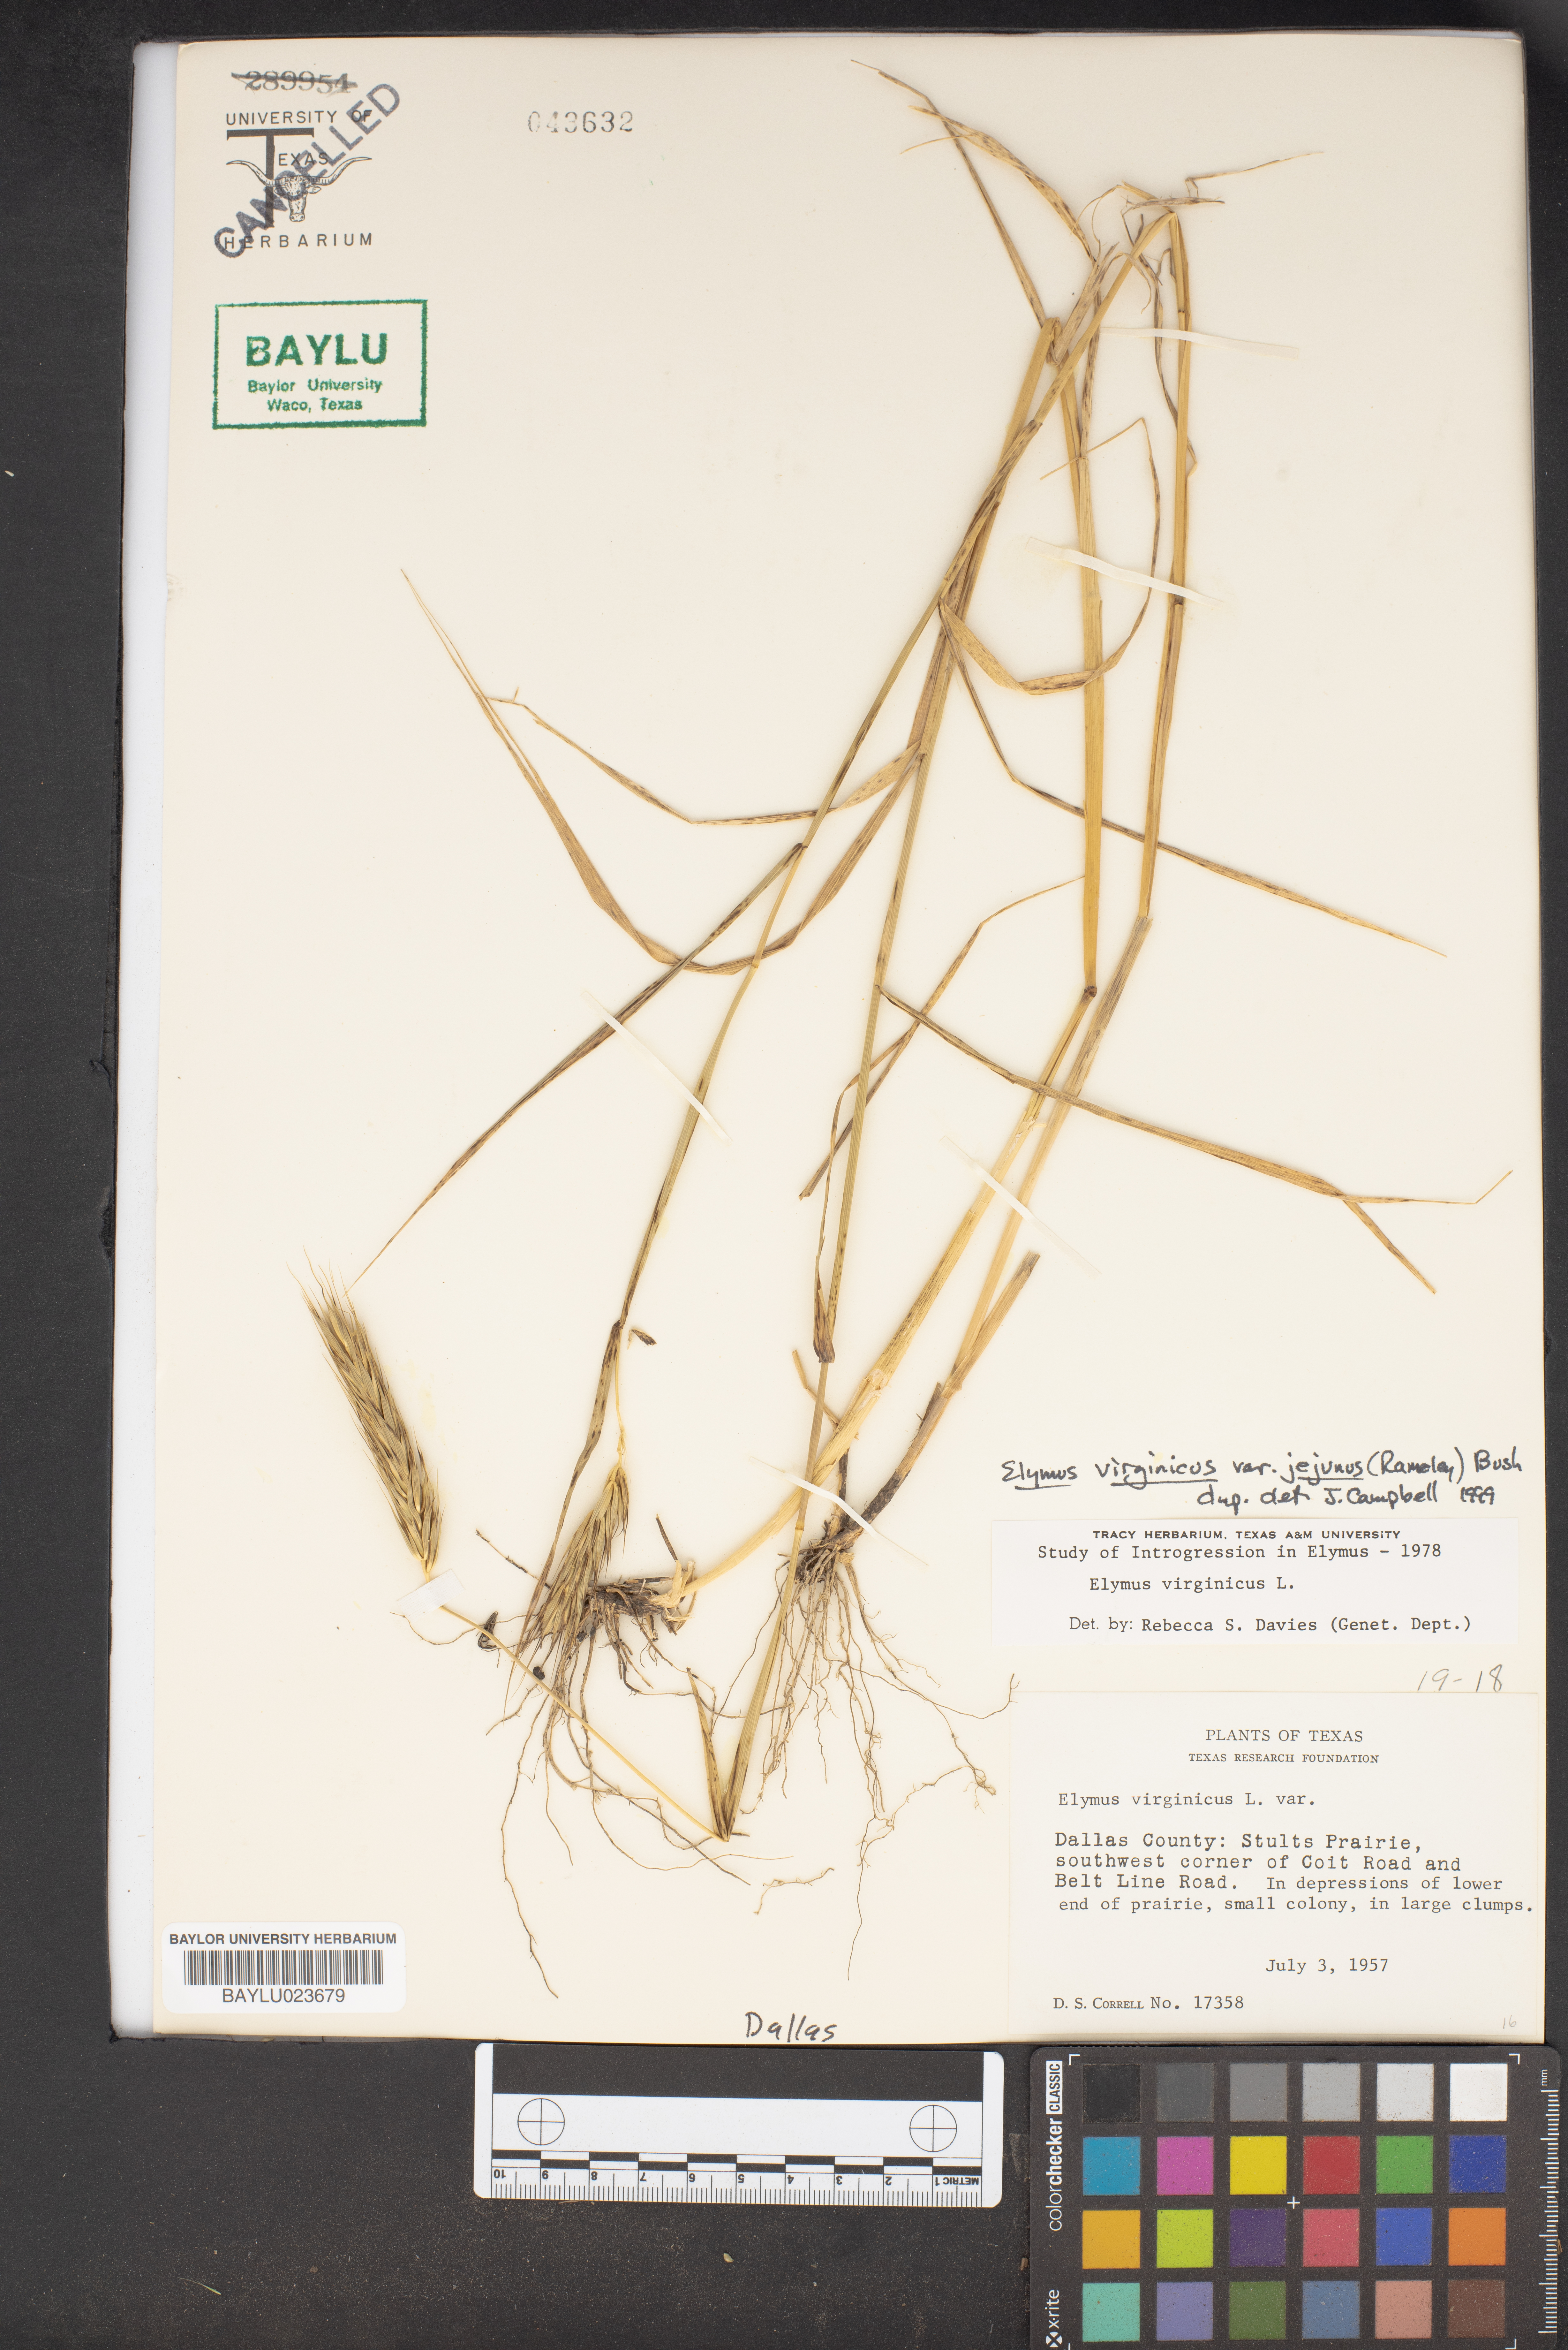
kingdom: Plantae
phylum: Tracheophyta
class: Liliopsida
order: Poales
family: Poaceae
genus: Elymus
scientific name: Elymus virginicus
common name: Common eastern wildrye
